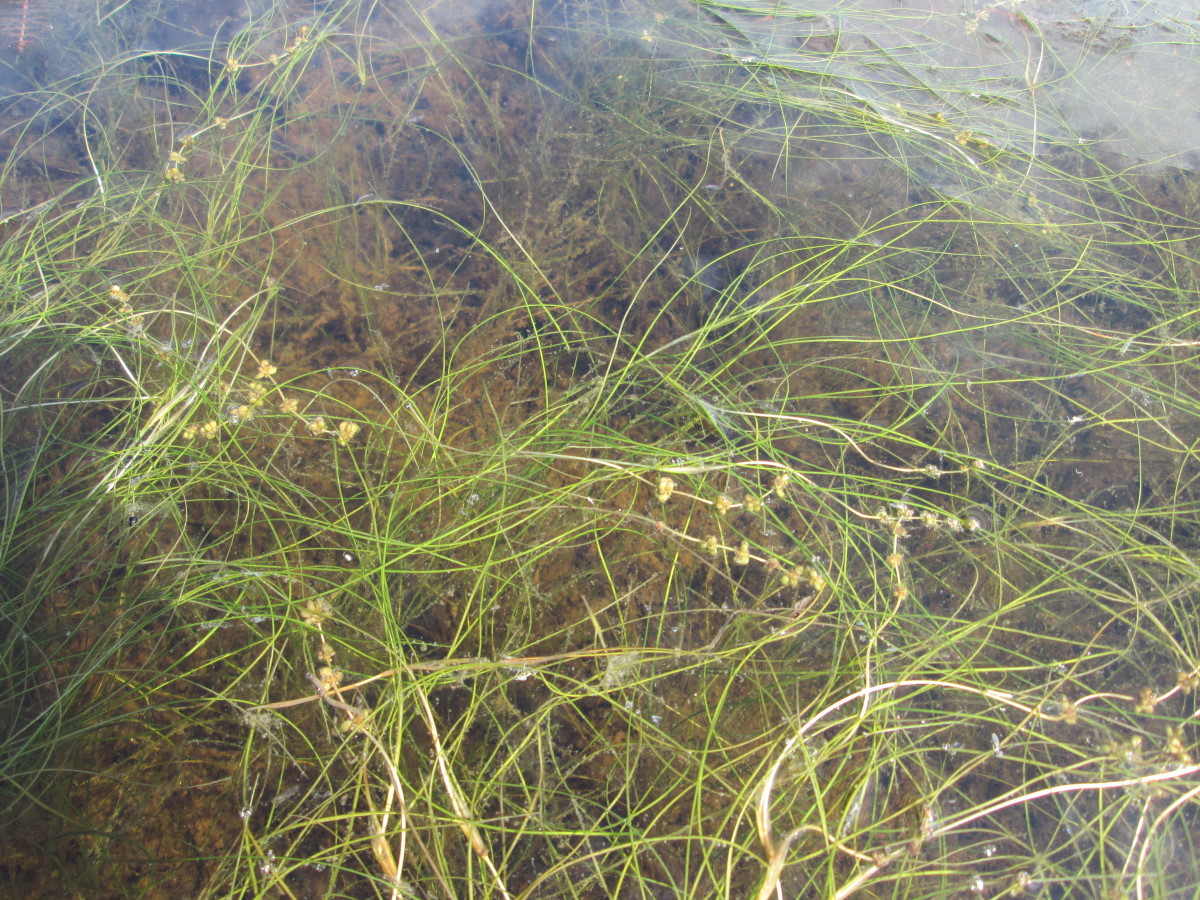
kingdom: Plantae
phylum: Tracheophyta
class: Liliopsida
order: Alismatales
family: Potamogetonaceae
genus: Stuckenia
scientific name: Stuckenia pectinata
